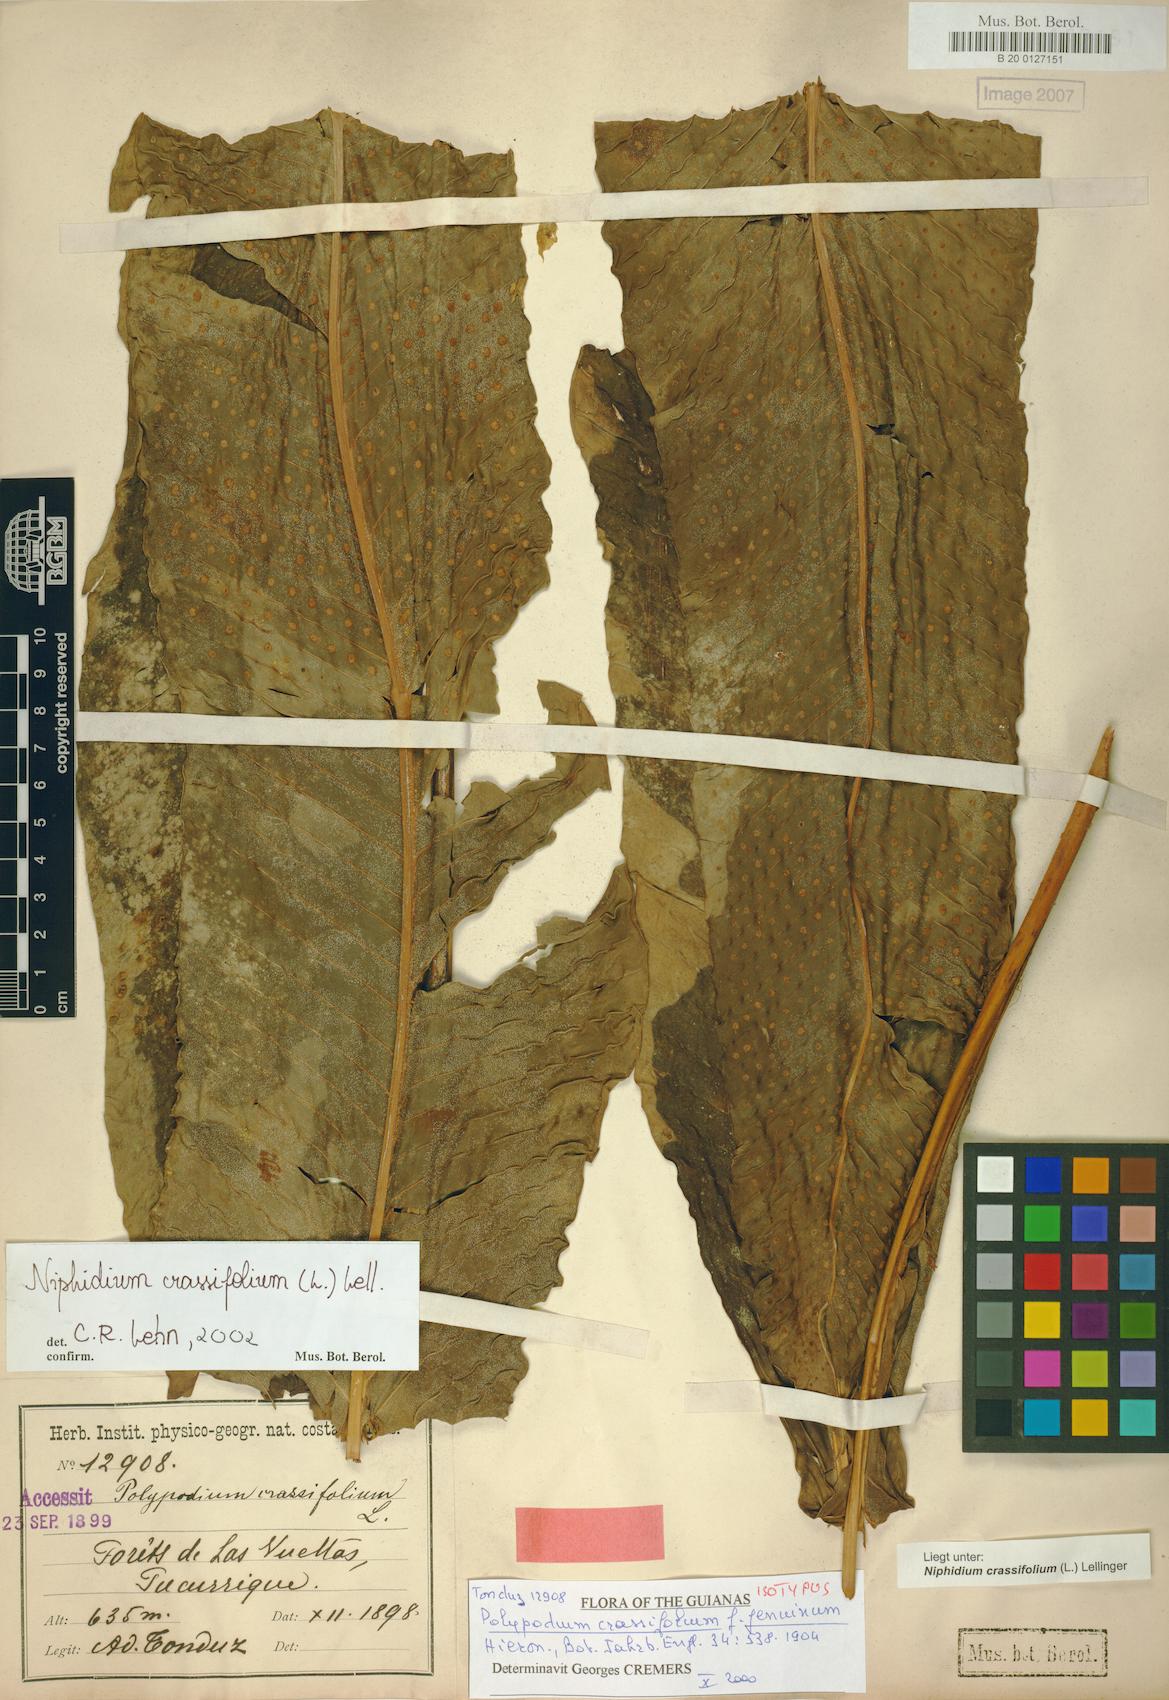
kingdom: Plantae
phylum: Tracheophyta
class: Polypodiopsida
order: Polypodiales
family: Polypodiaceae
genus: Niphidium
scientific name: Niphidium crassifolium
